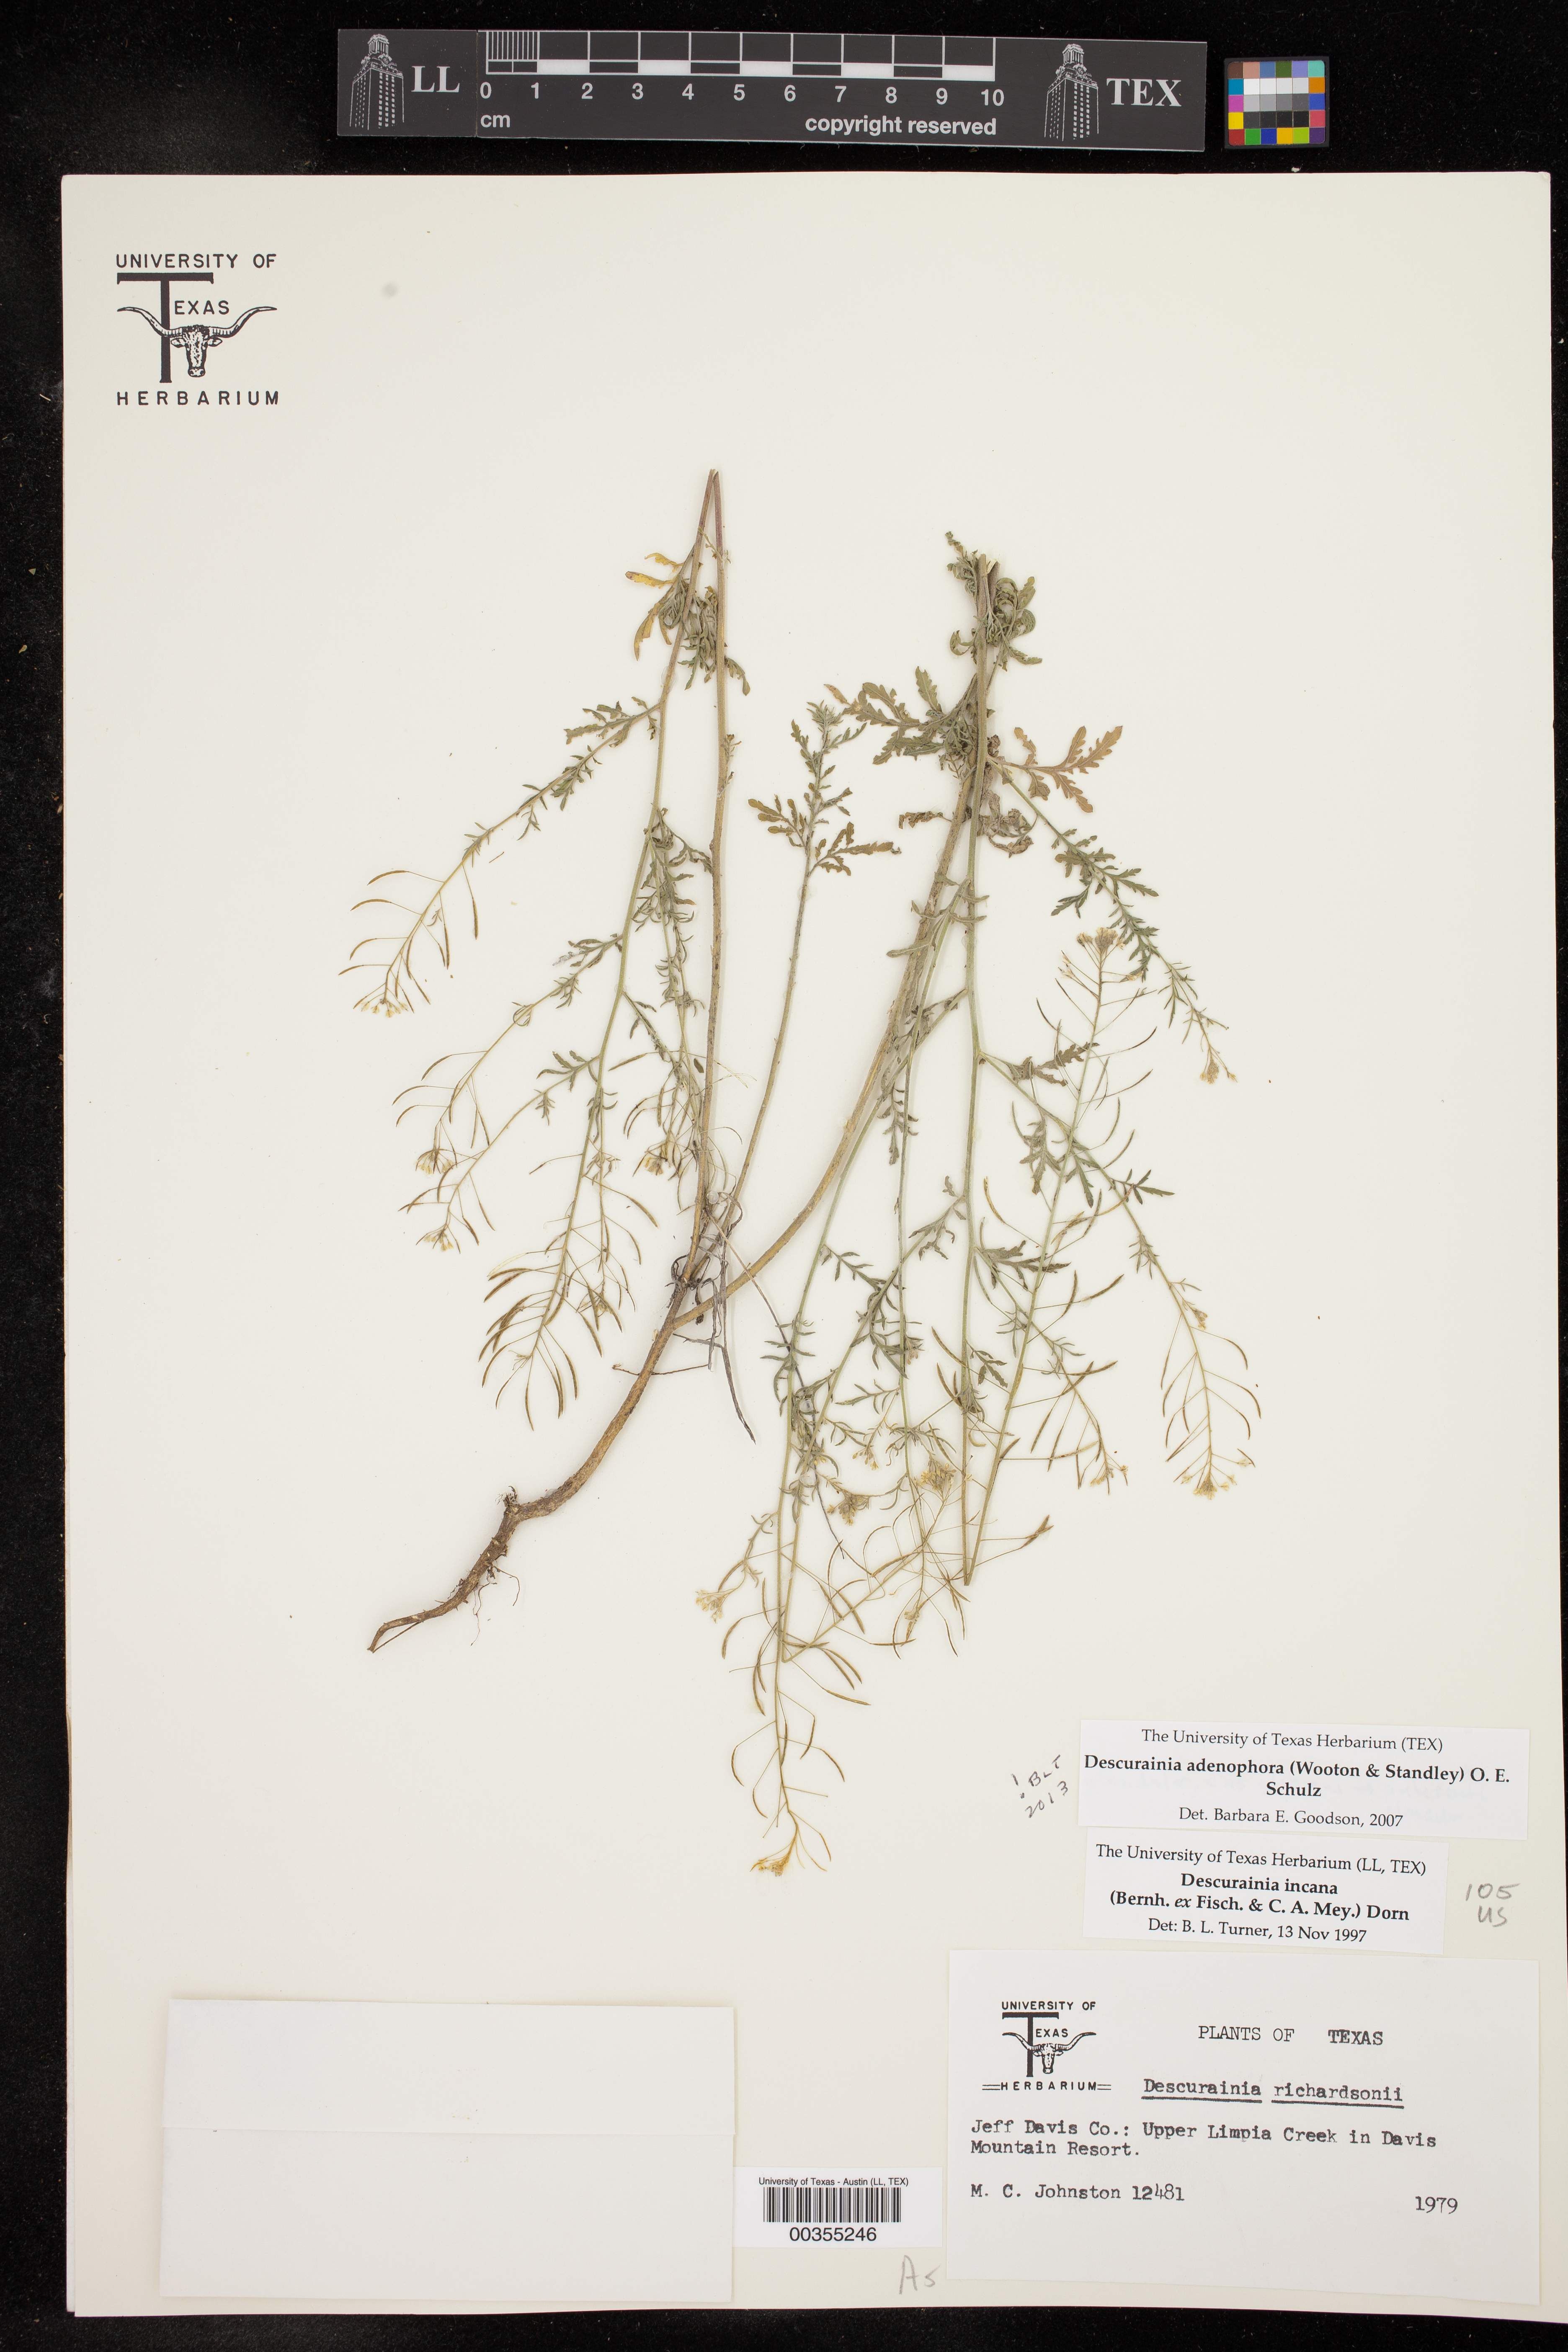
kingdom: Plantae
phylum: Tracheophyta
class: Magnoliopsida
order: Brassicales
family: Brassicaceae
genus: Descurainia
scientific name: Descurainia adenophora
